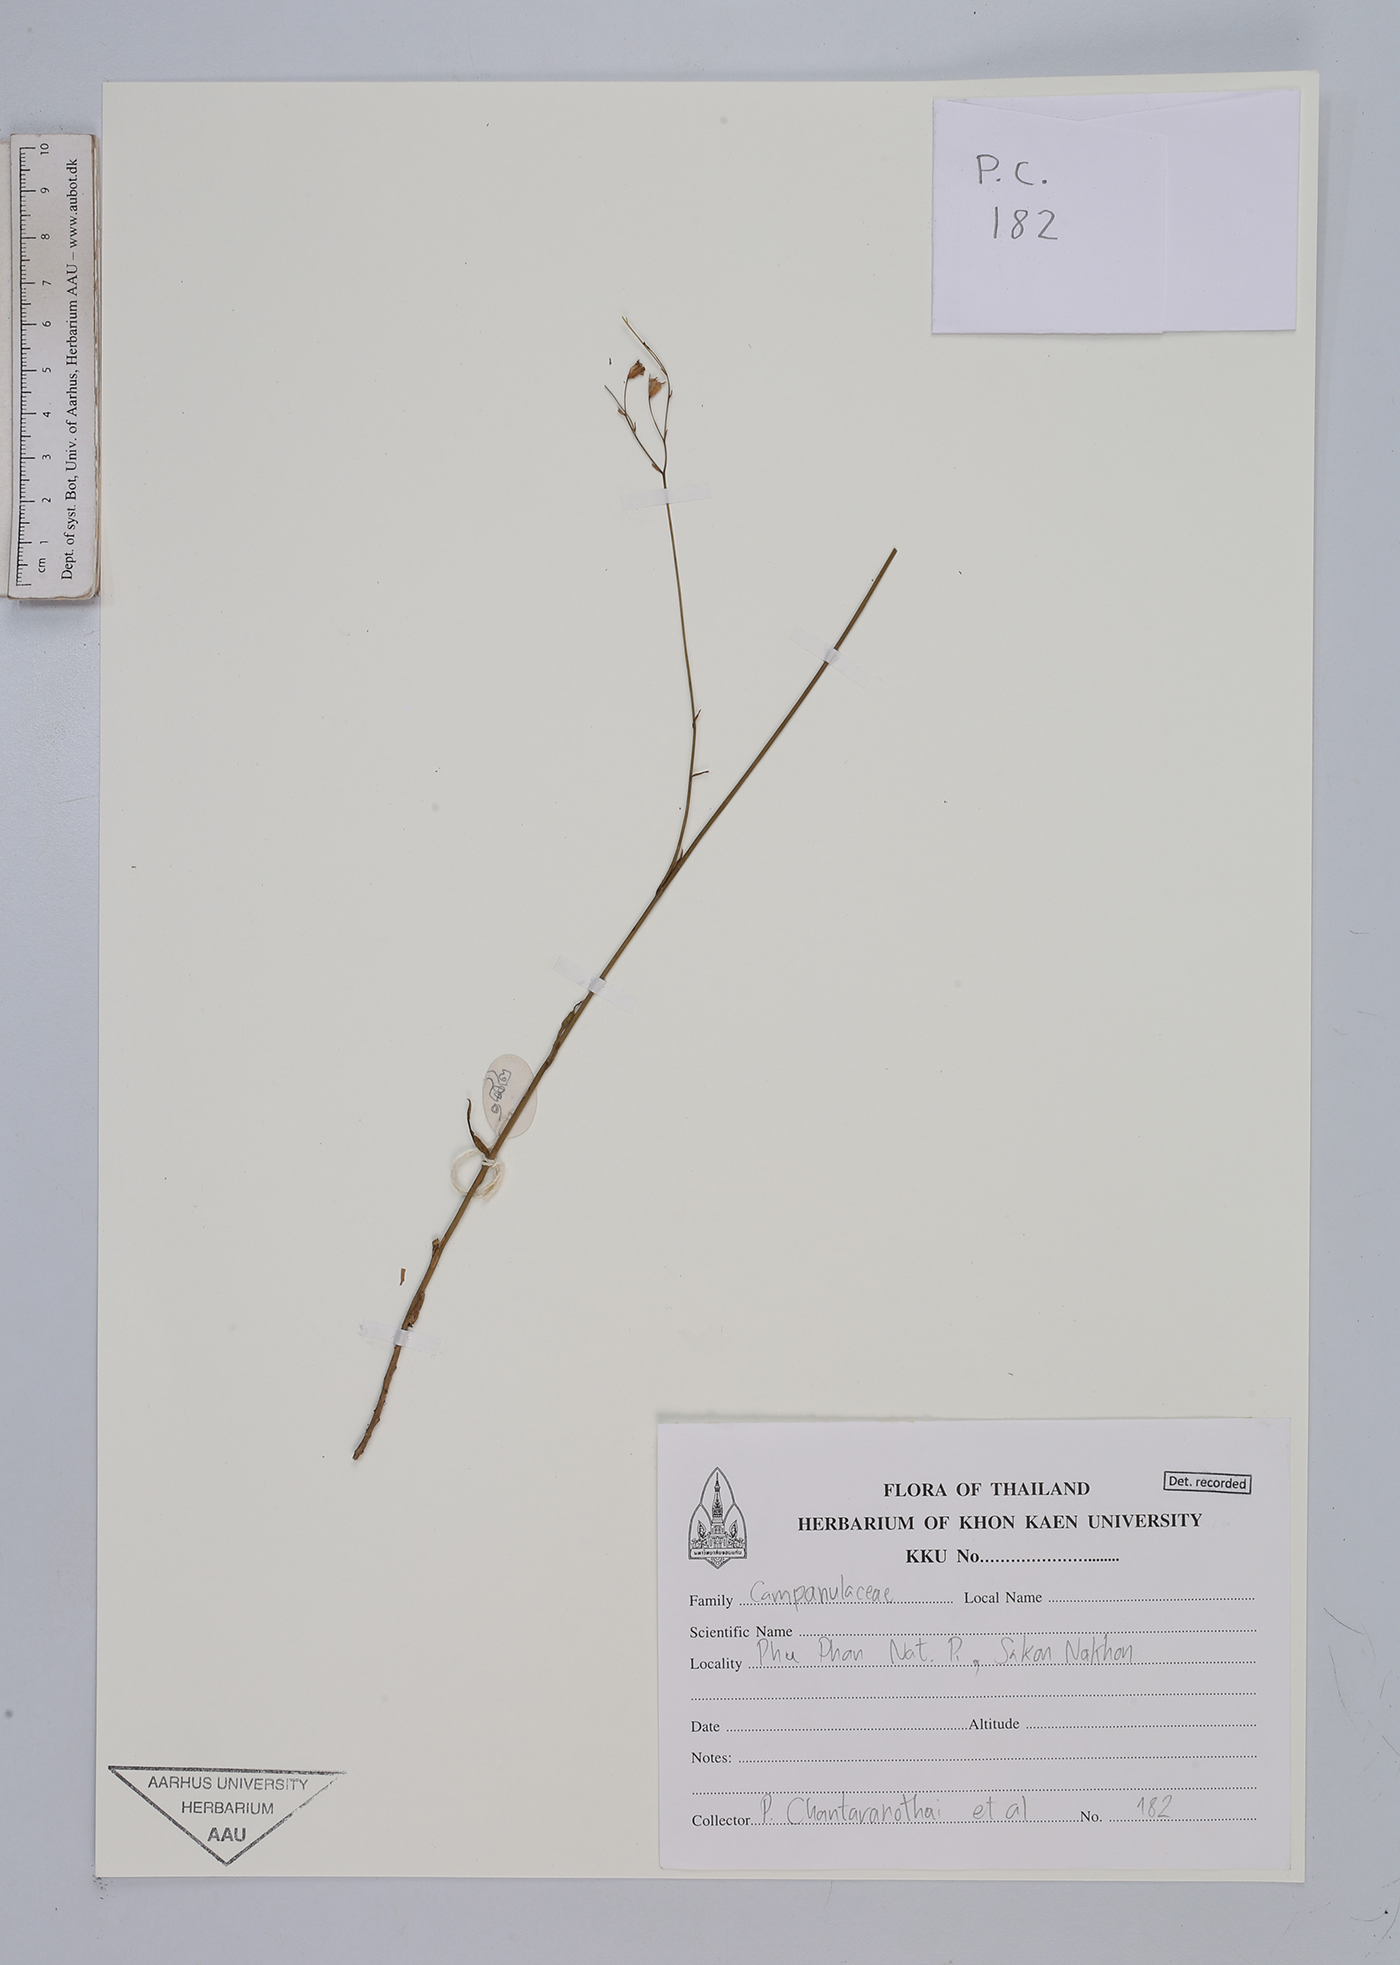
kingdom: Plantae
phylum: Tracheophyta
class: Magnoliopsida
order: Asterales
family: Campanulaceae
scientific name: Campanulaceae
